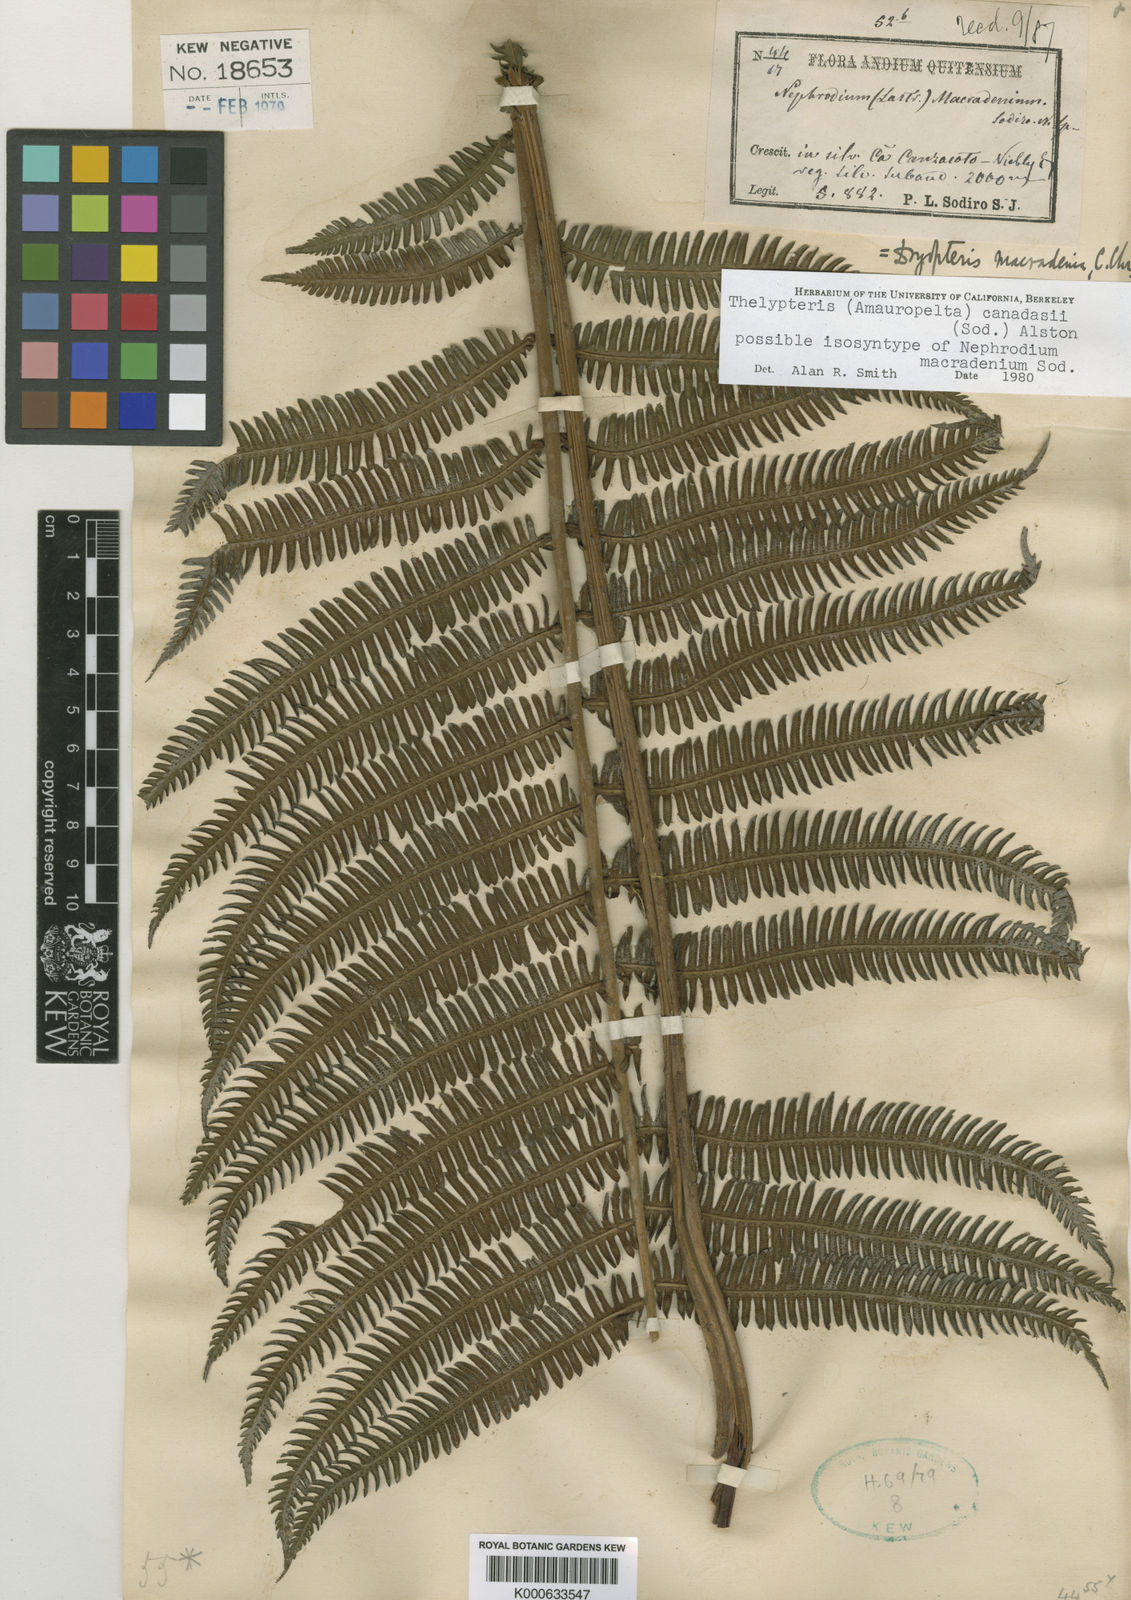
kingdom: Plantae
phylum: Tracheophyta
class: Polypodiopsida
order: Polypodiales
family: Thelypteridaceae
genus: Amauropelta
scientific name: Amauropelta
